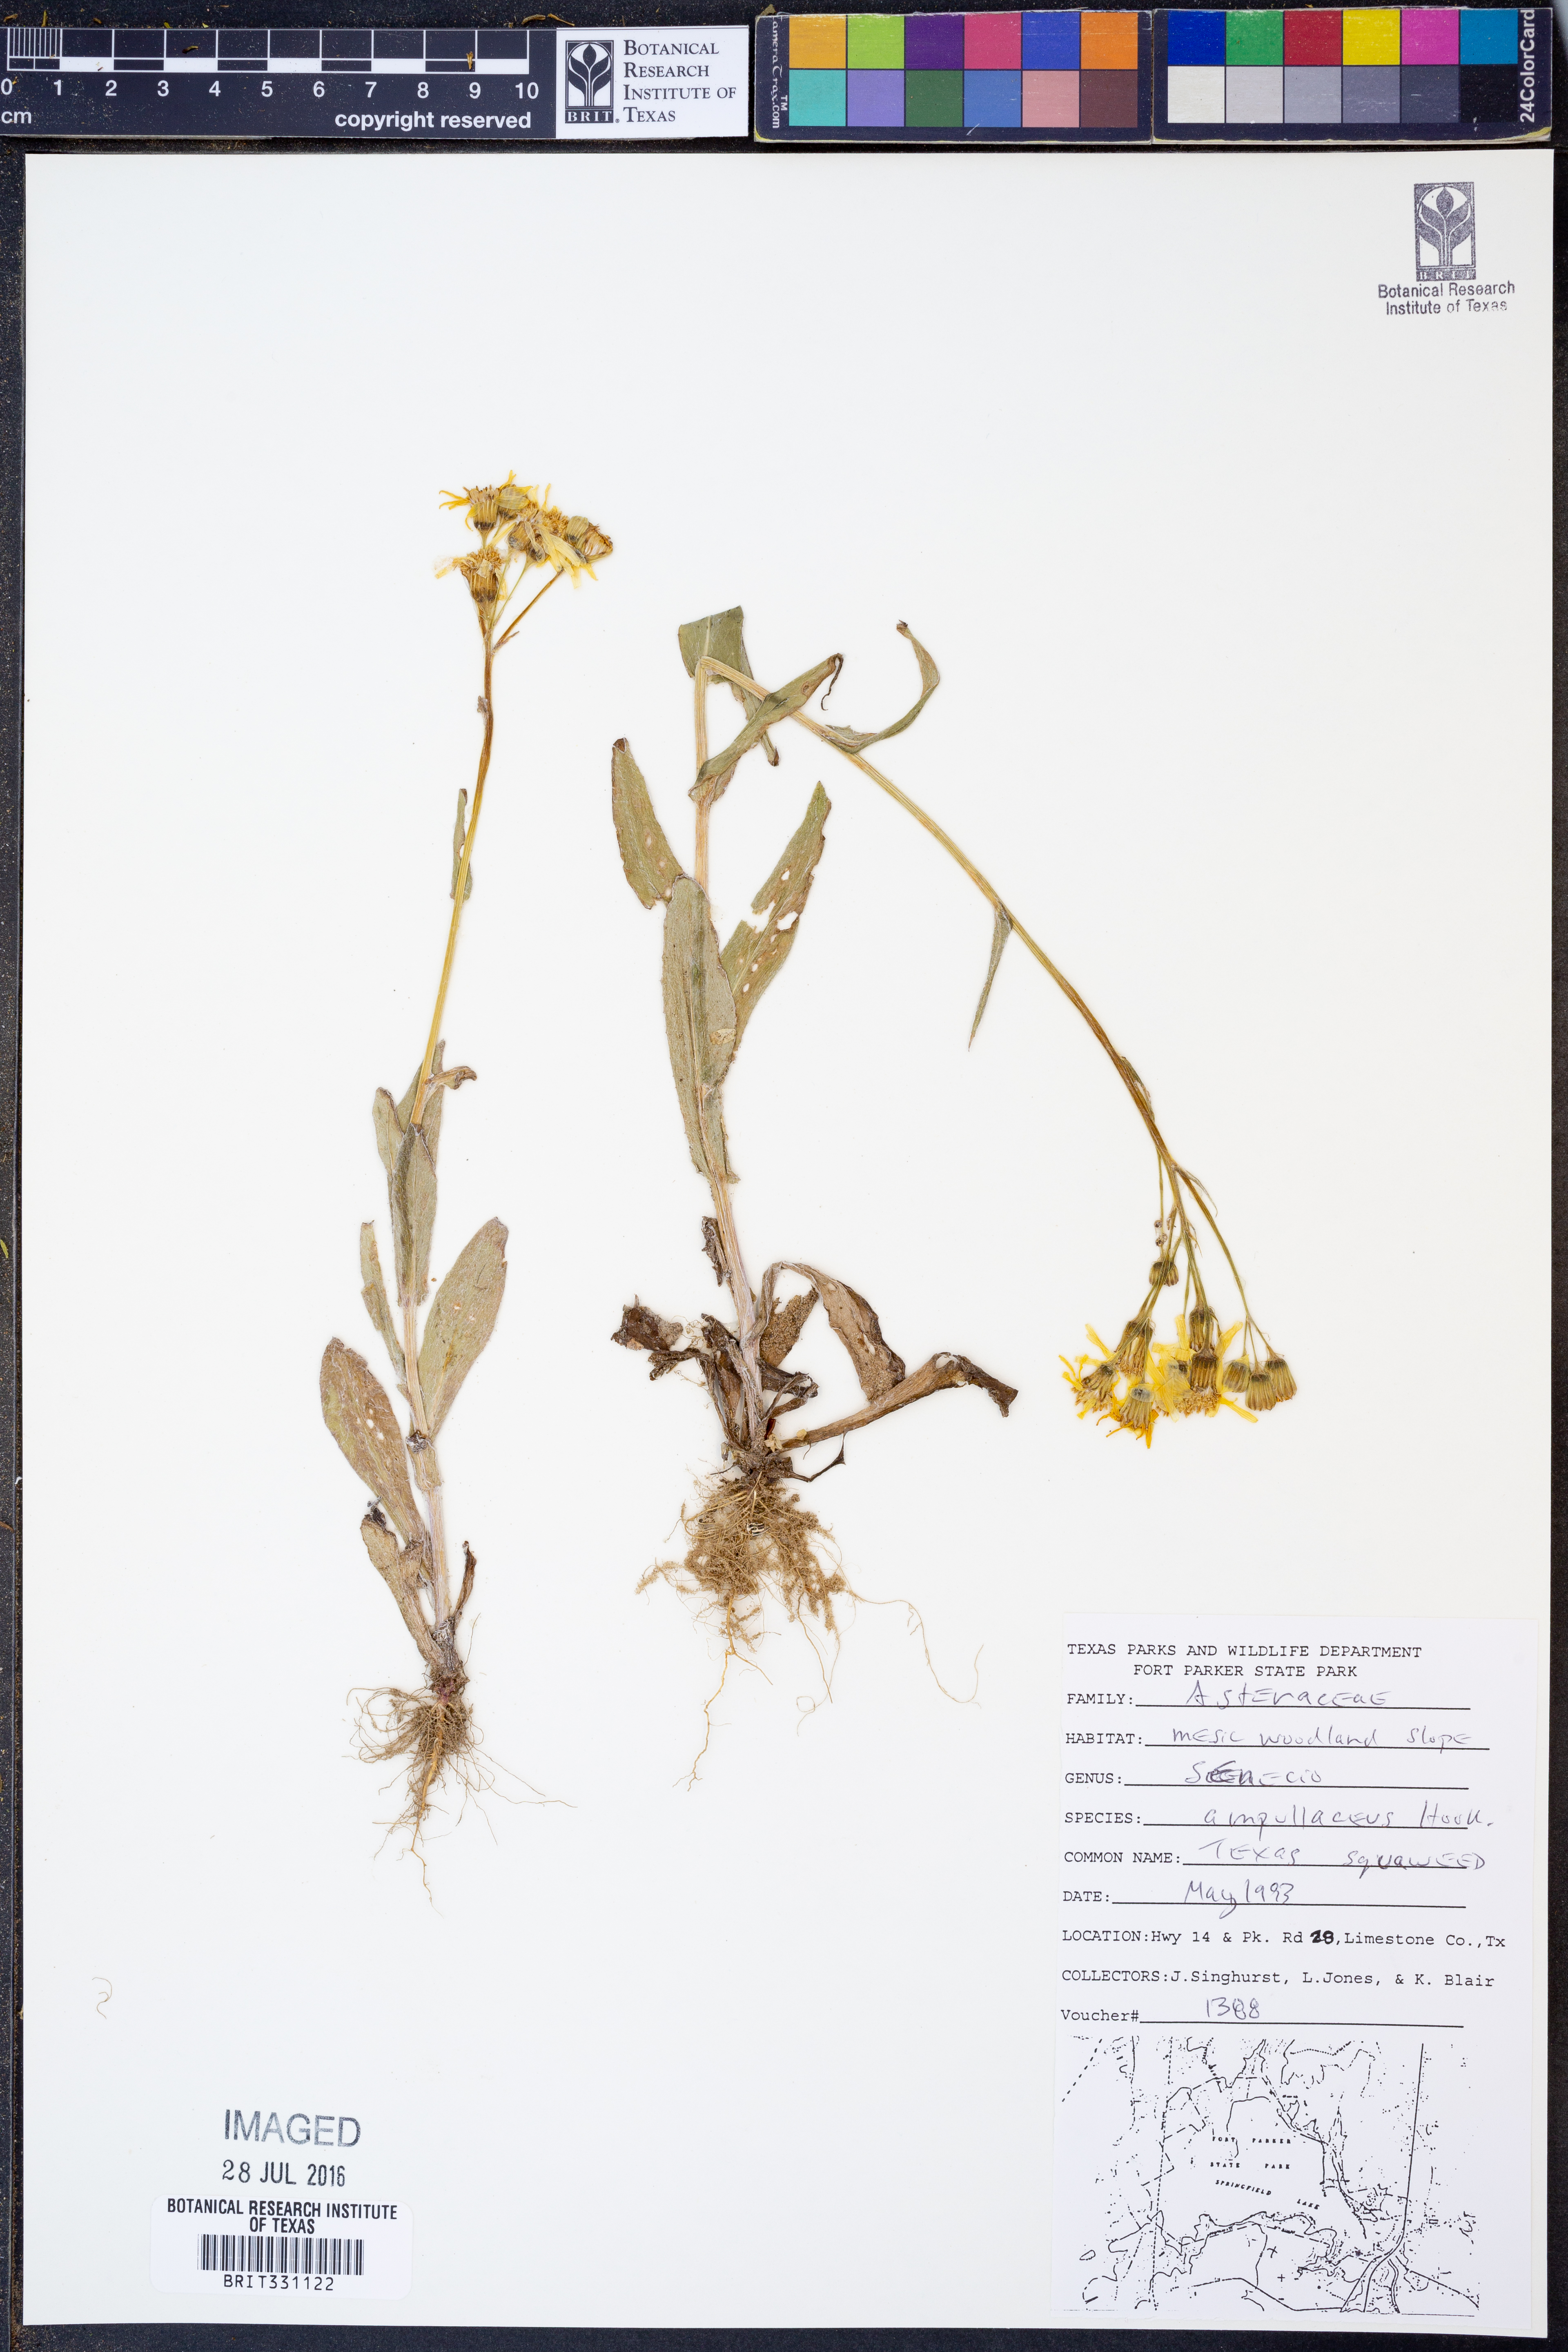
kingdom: Plantae
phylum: Tracheophyta
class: Magnoliopsida
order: Asterales
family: Asteraceae
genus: Senecio
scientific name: Senecio ampullaceus
